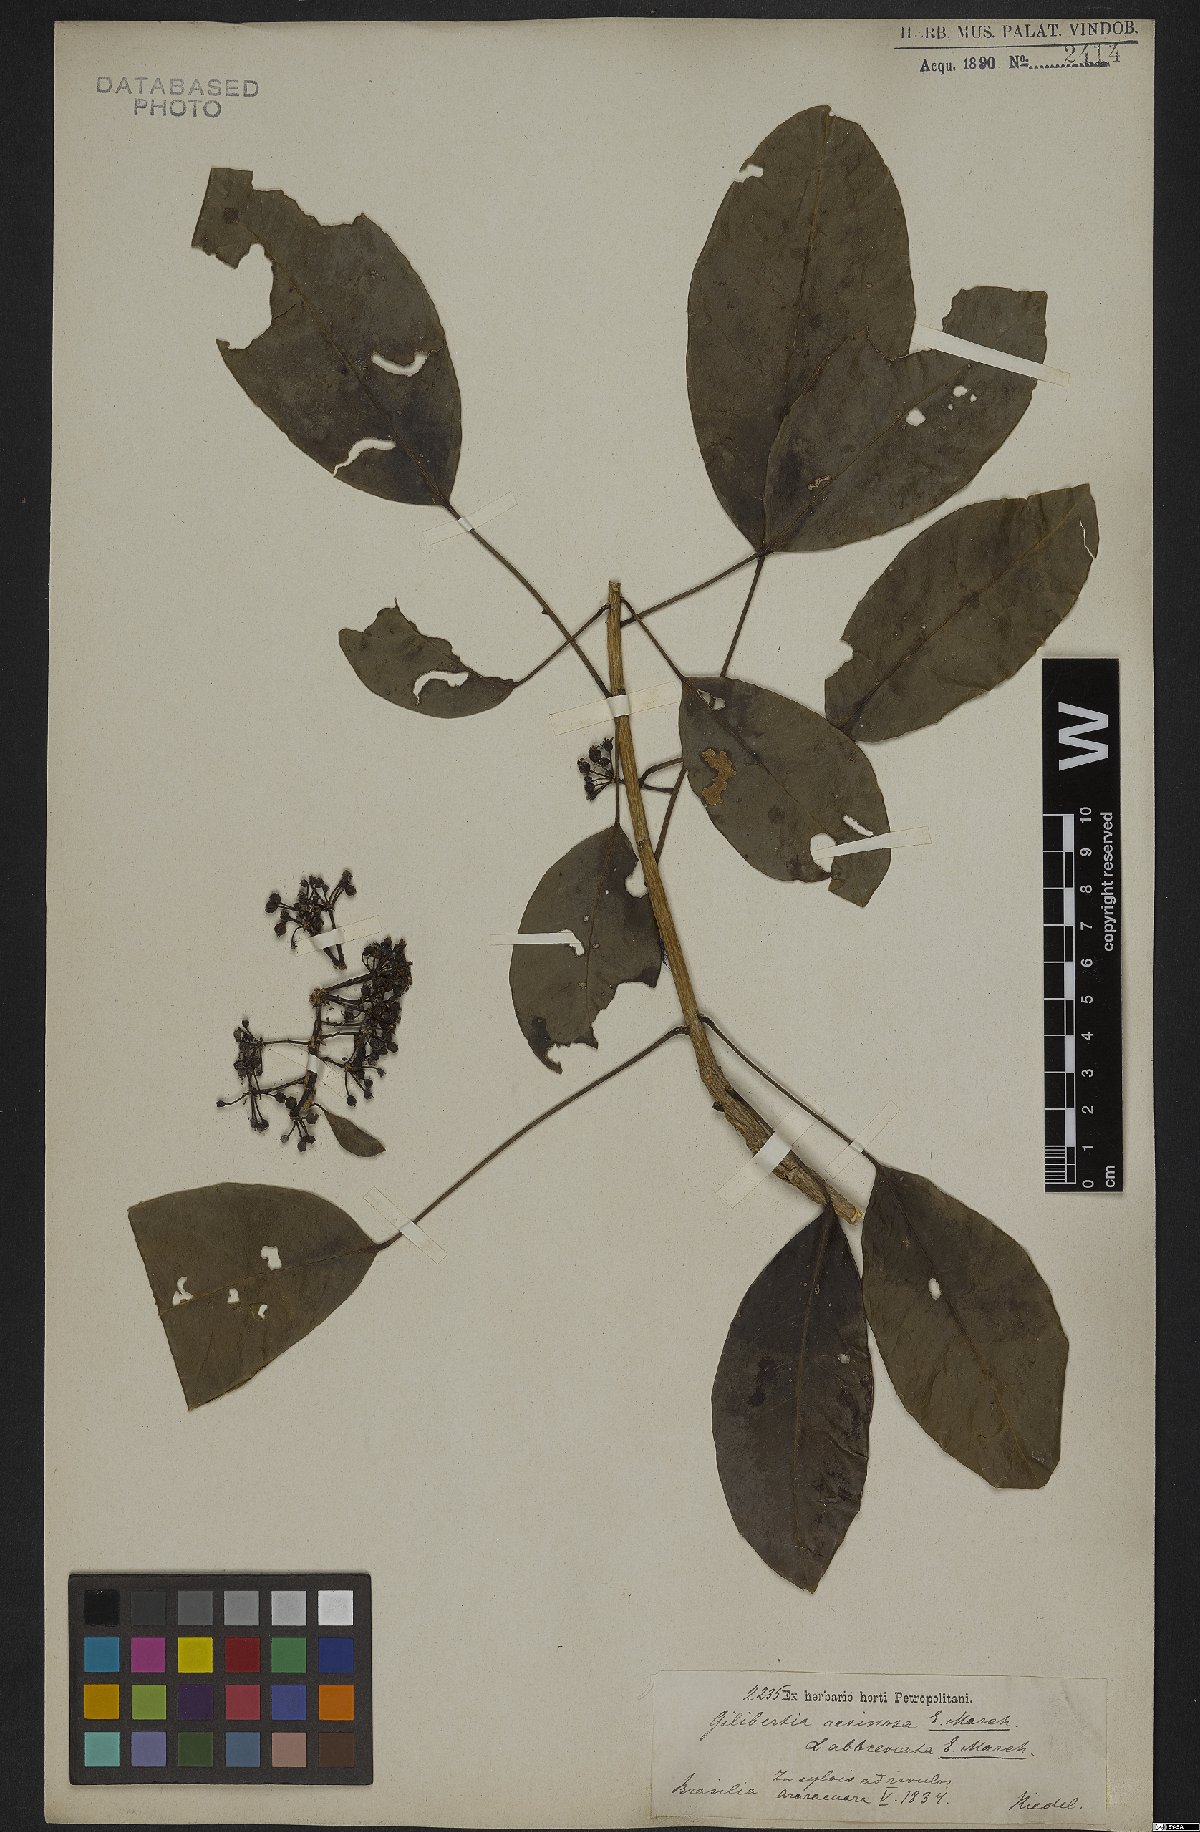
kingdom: Plantae
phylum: Tracheophyta
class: Magnoliopsida
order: Apiales
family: Araliaceae
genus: Dendropanax
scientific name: Dendropanax resinosus
